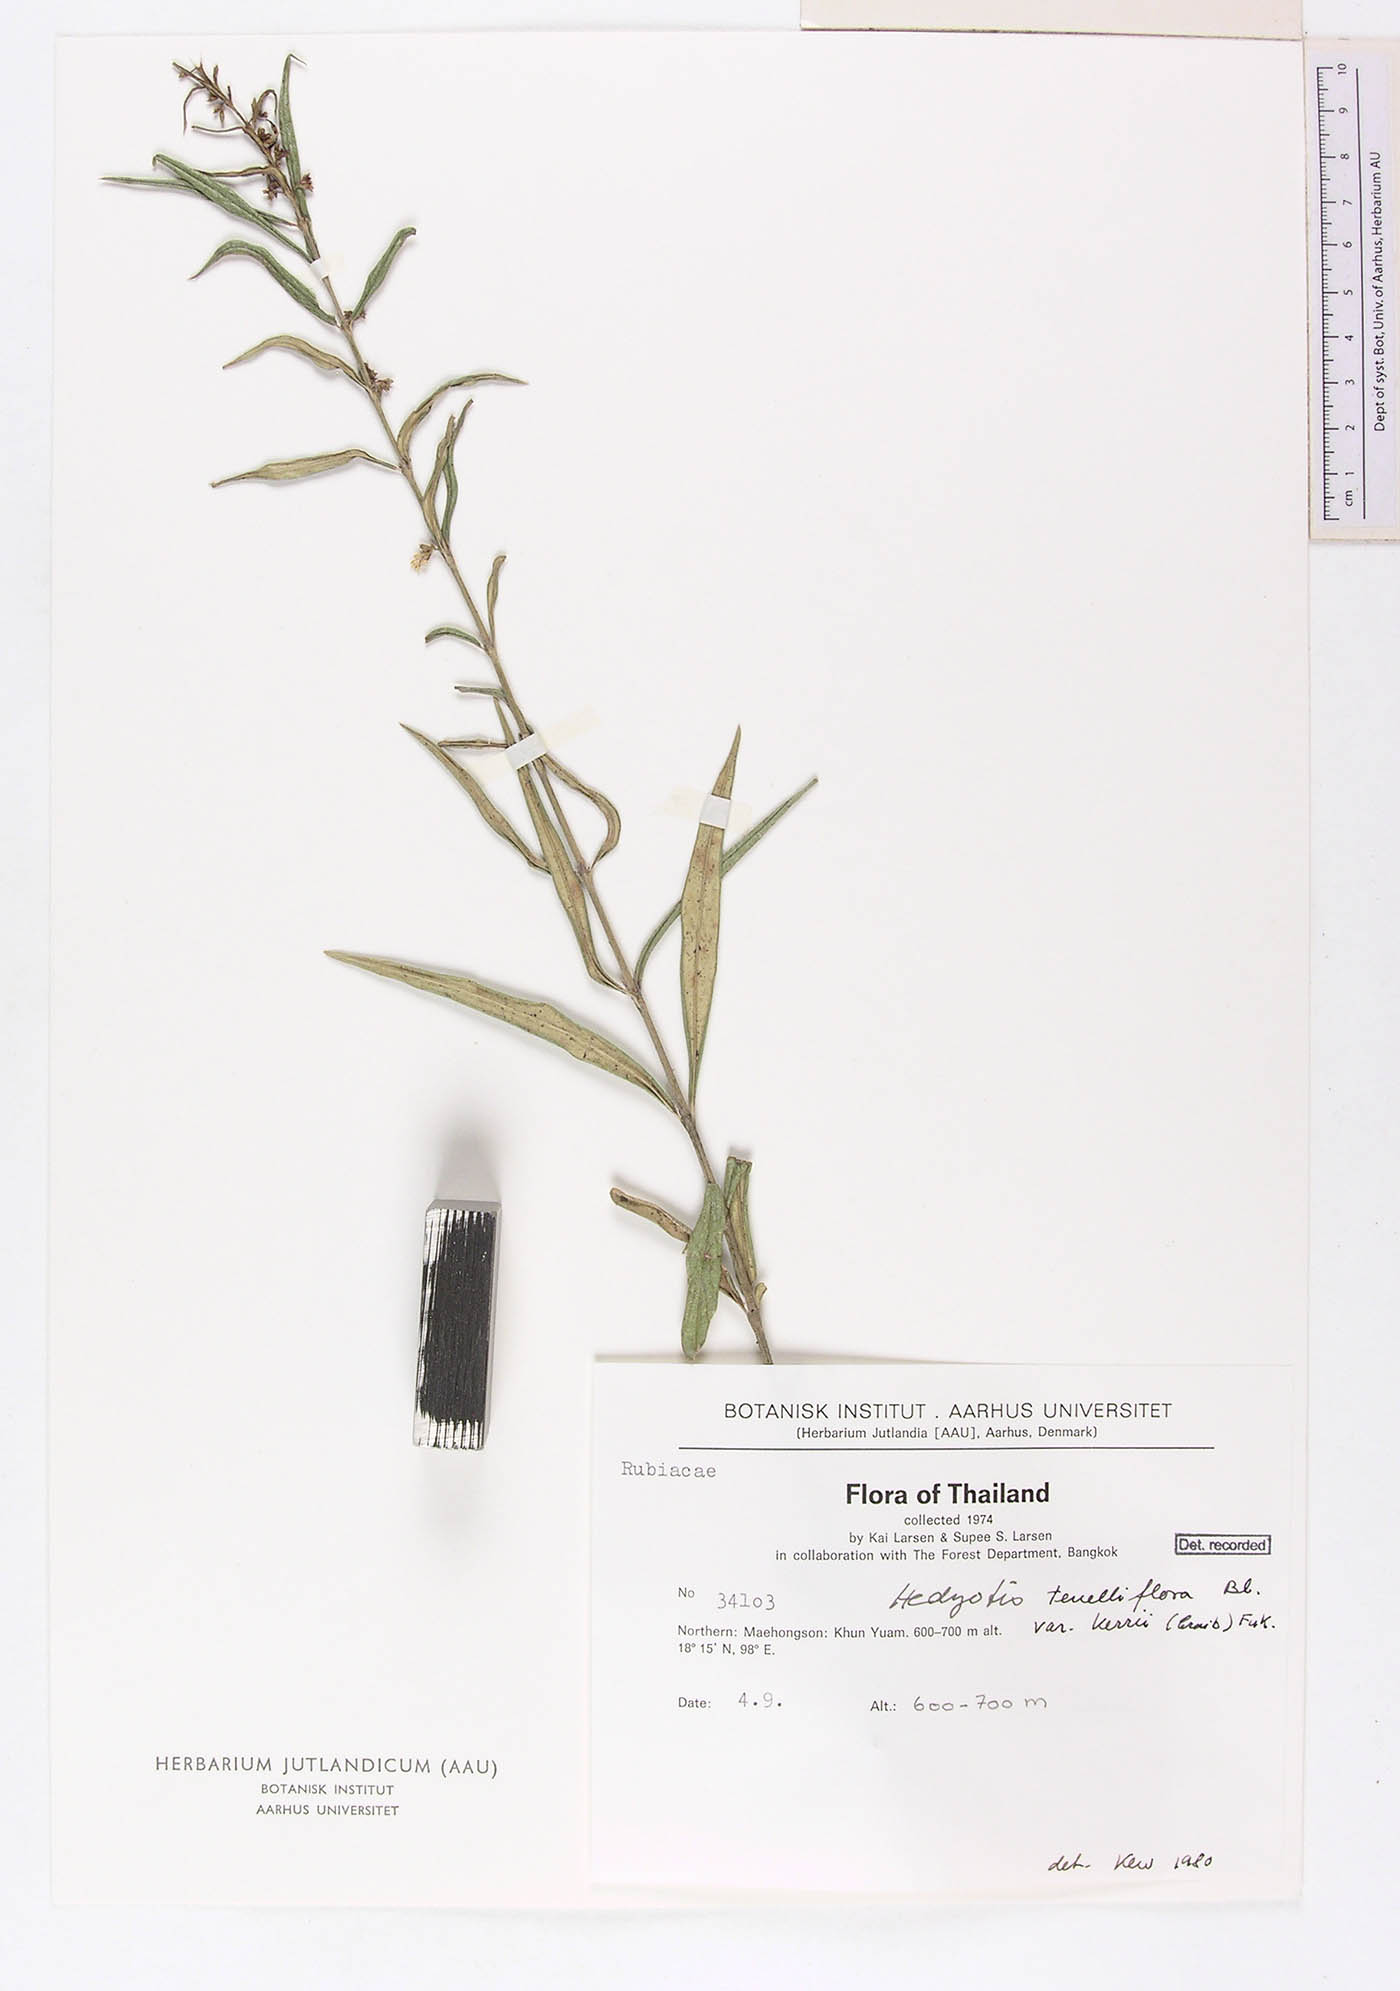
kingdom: Plantae
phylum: Tracheophyta
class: Magnoliopsida
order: Gentianales
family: Rubiaceae
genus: Scleromitrion
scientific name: Scleromitrion tenelliflorum
